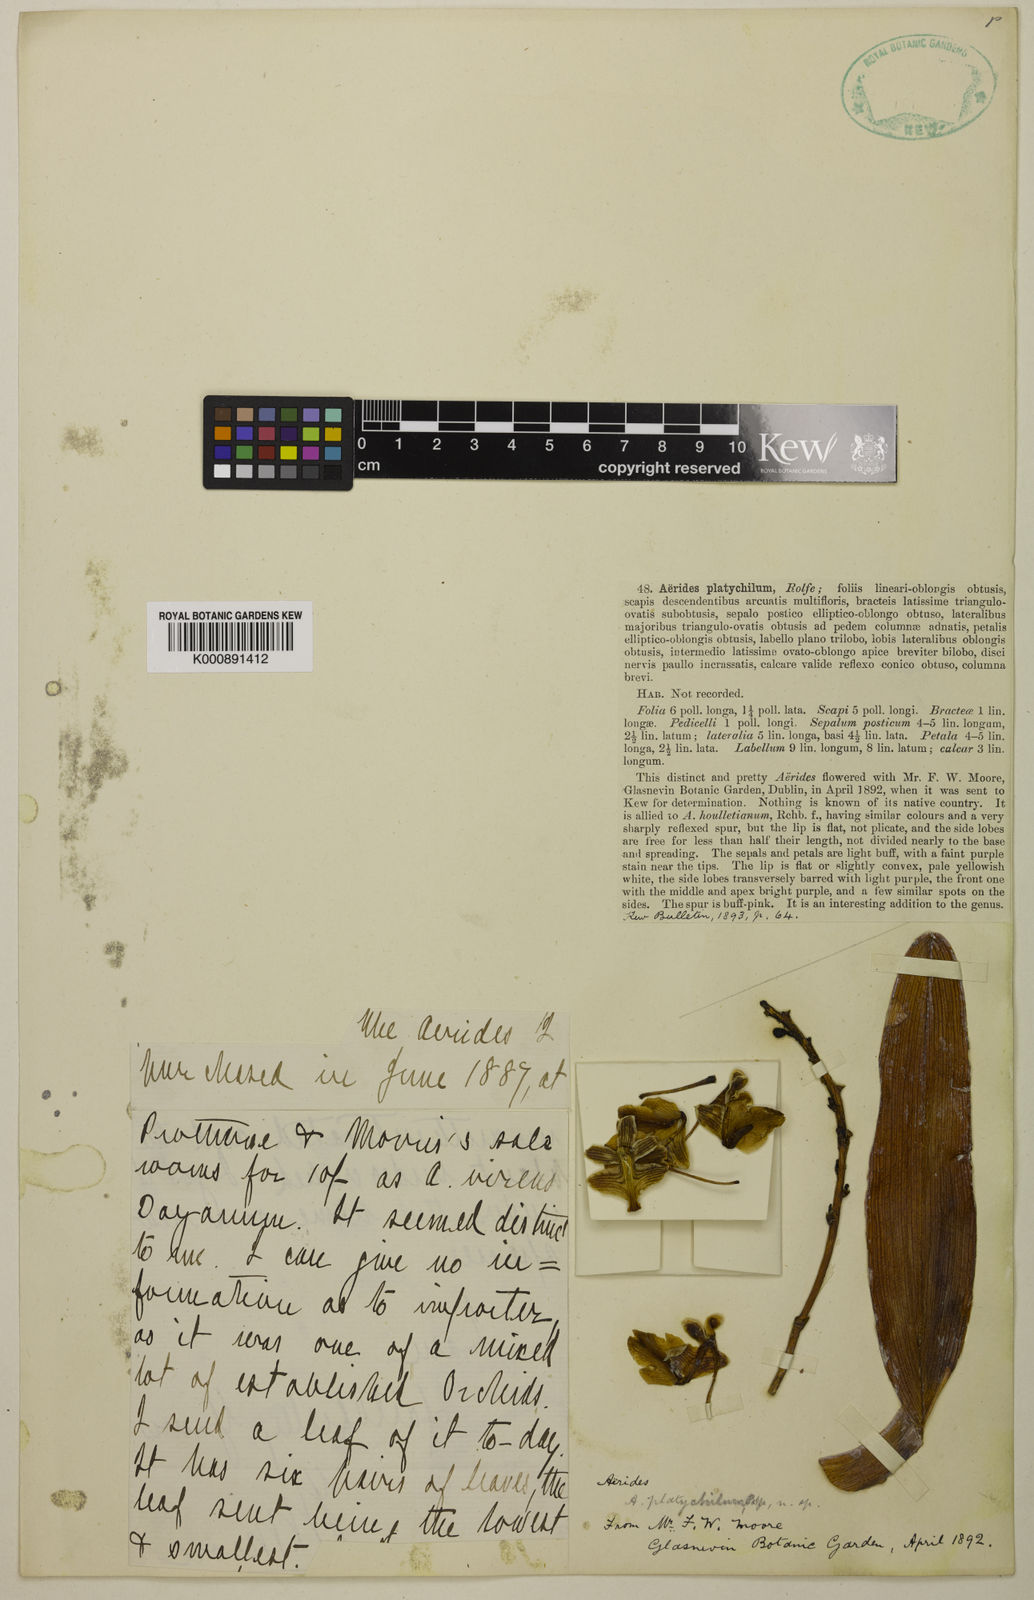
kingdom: Plantae
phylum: Tracheophyta
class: Liliopsida
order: Asparagales
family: Orchidaceae
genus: Aerides
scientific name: Aerides houlletiana
